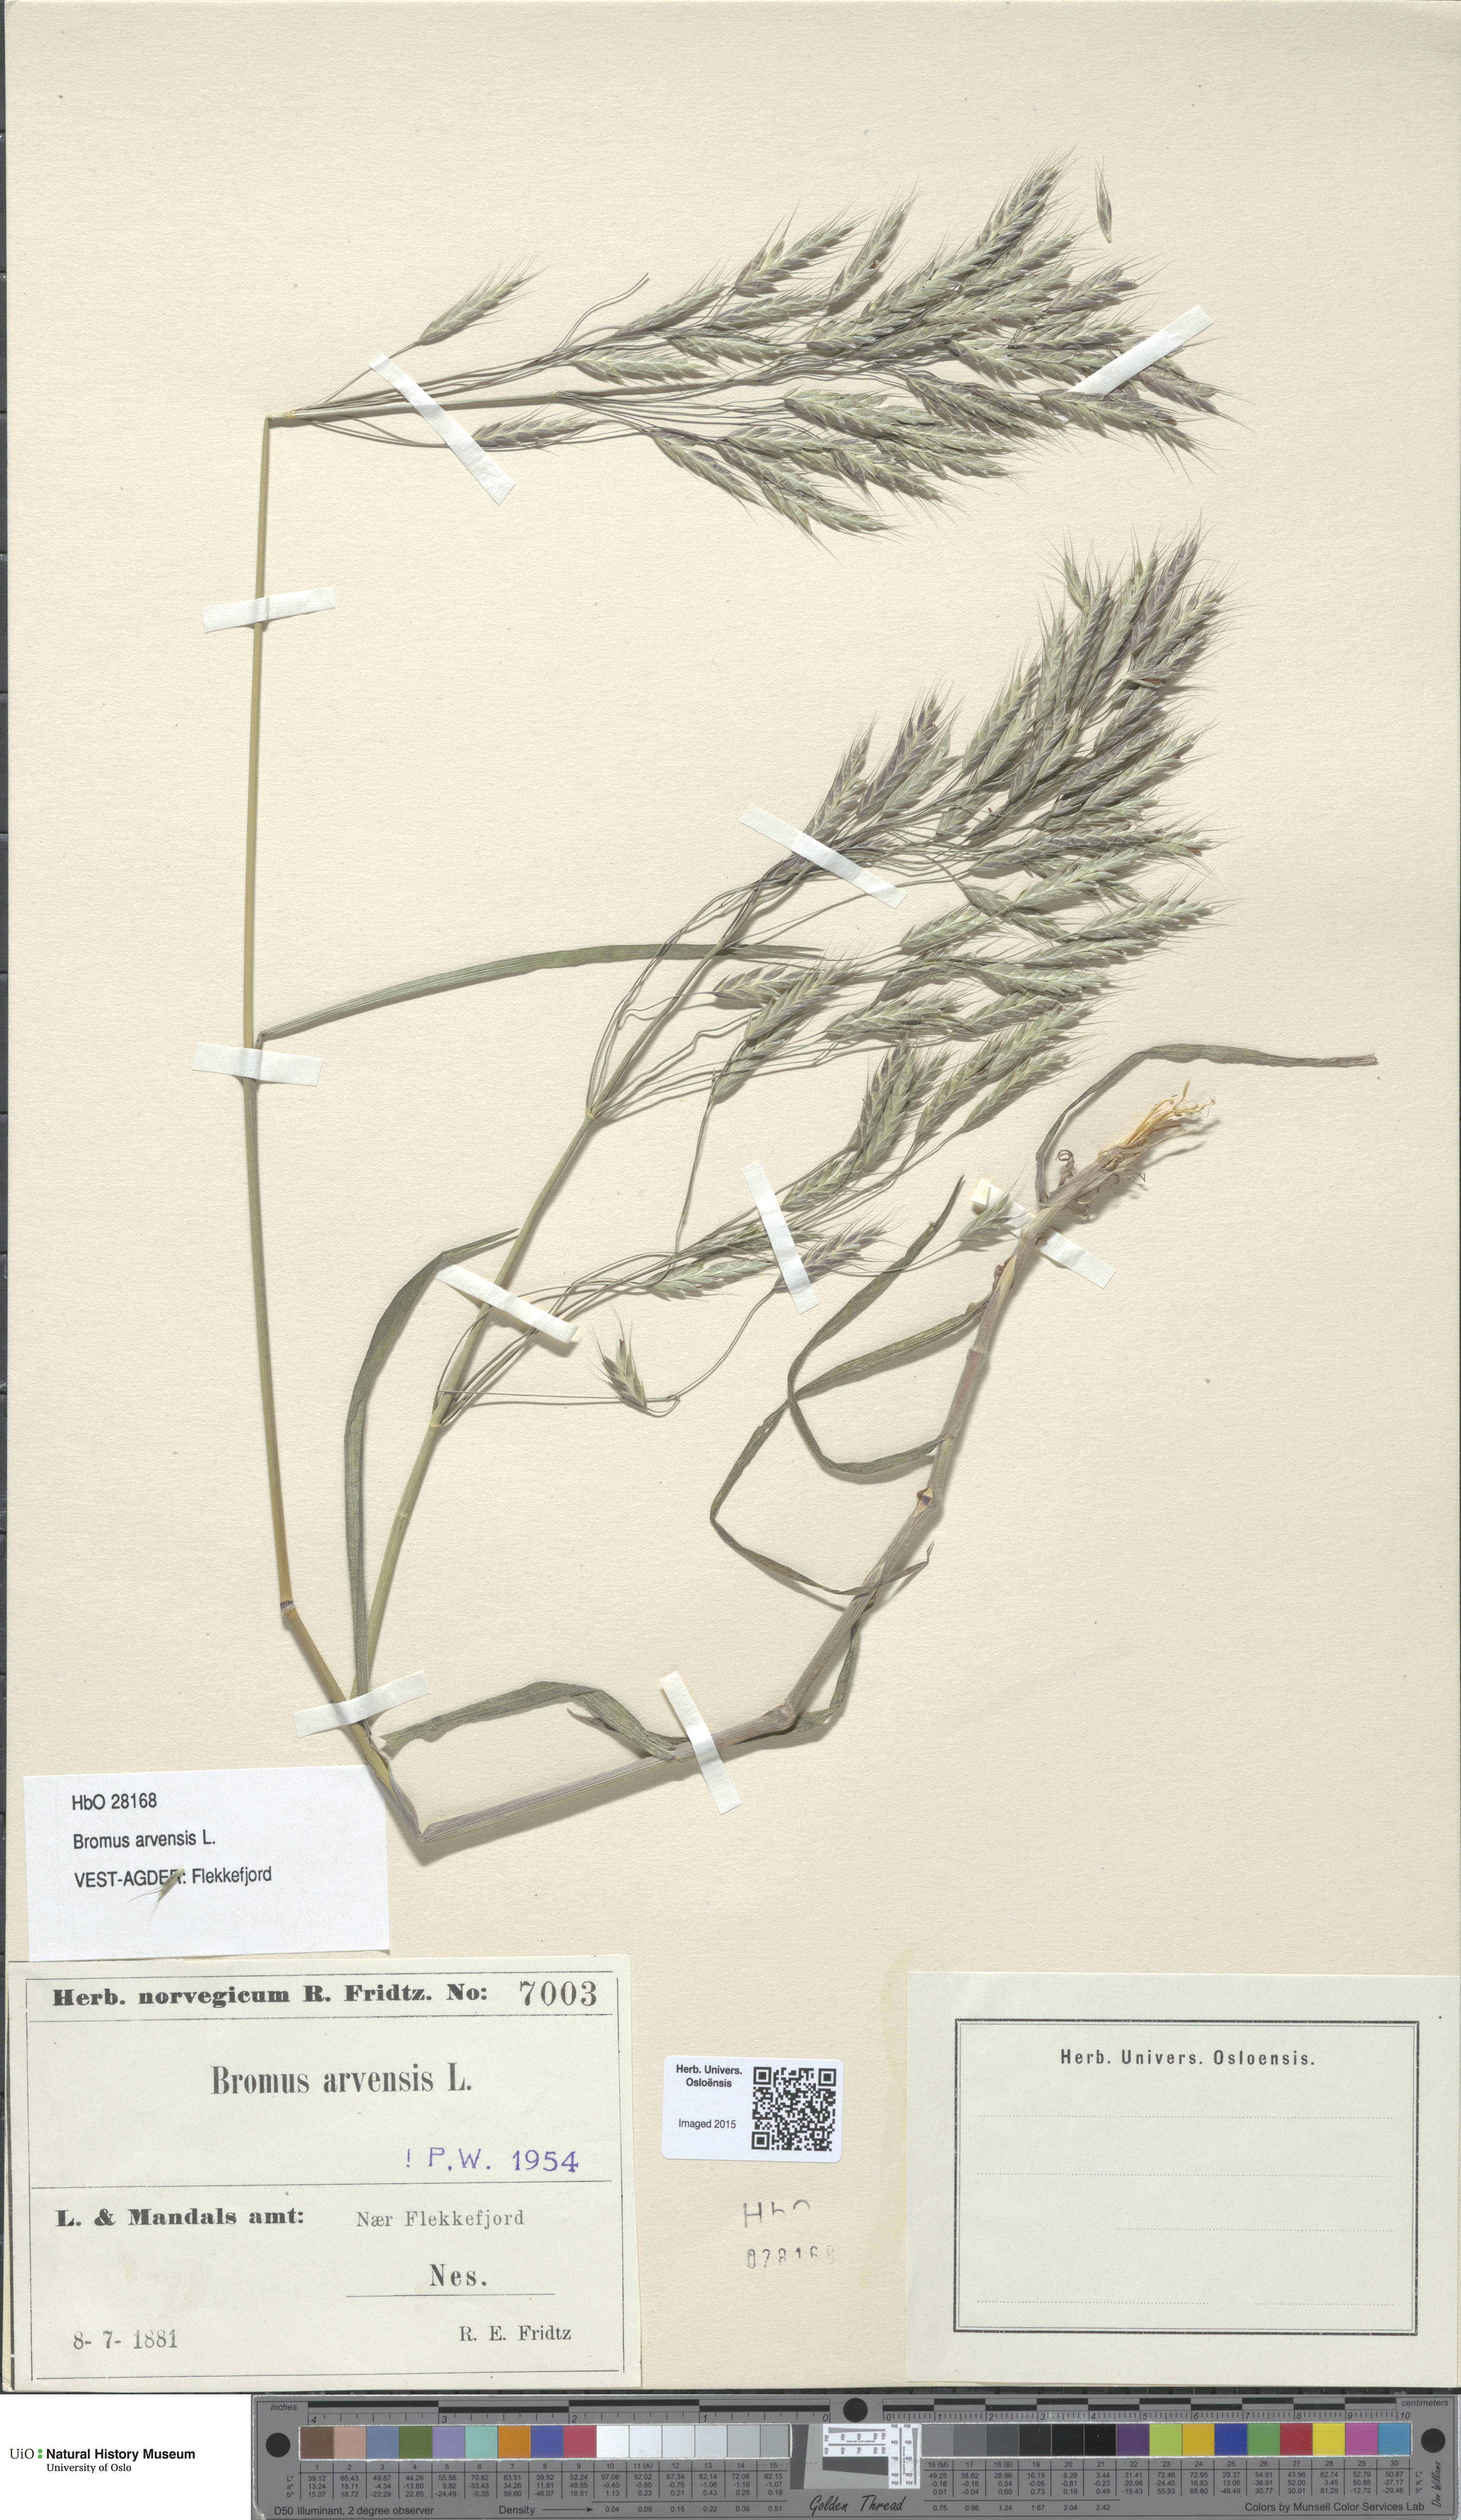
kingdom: Plantae
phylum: Tracheophyta
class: Liliopsida
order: Poales
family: Poaceae
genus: Bromus
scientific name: Bromus arvensis
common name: Field brome
